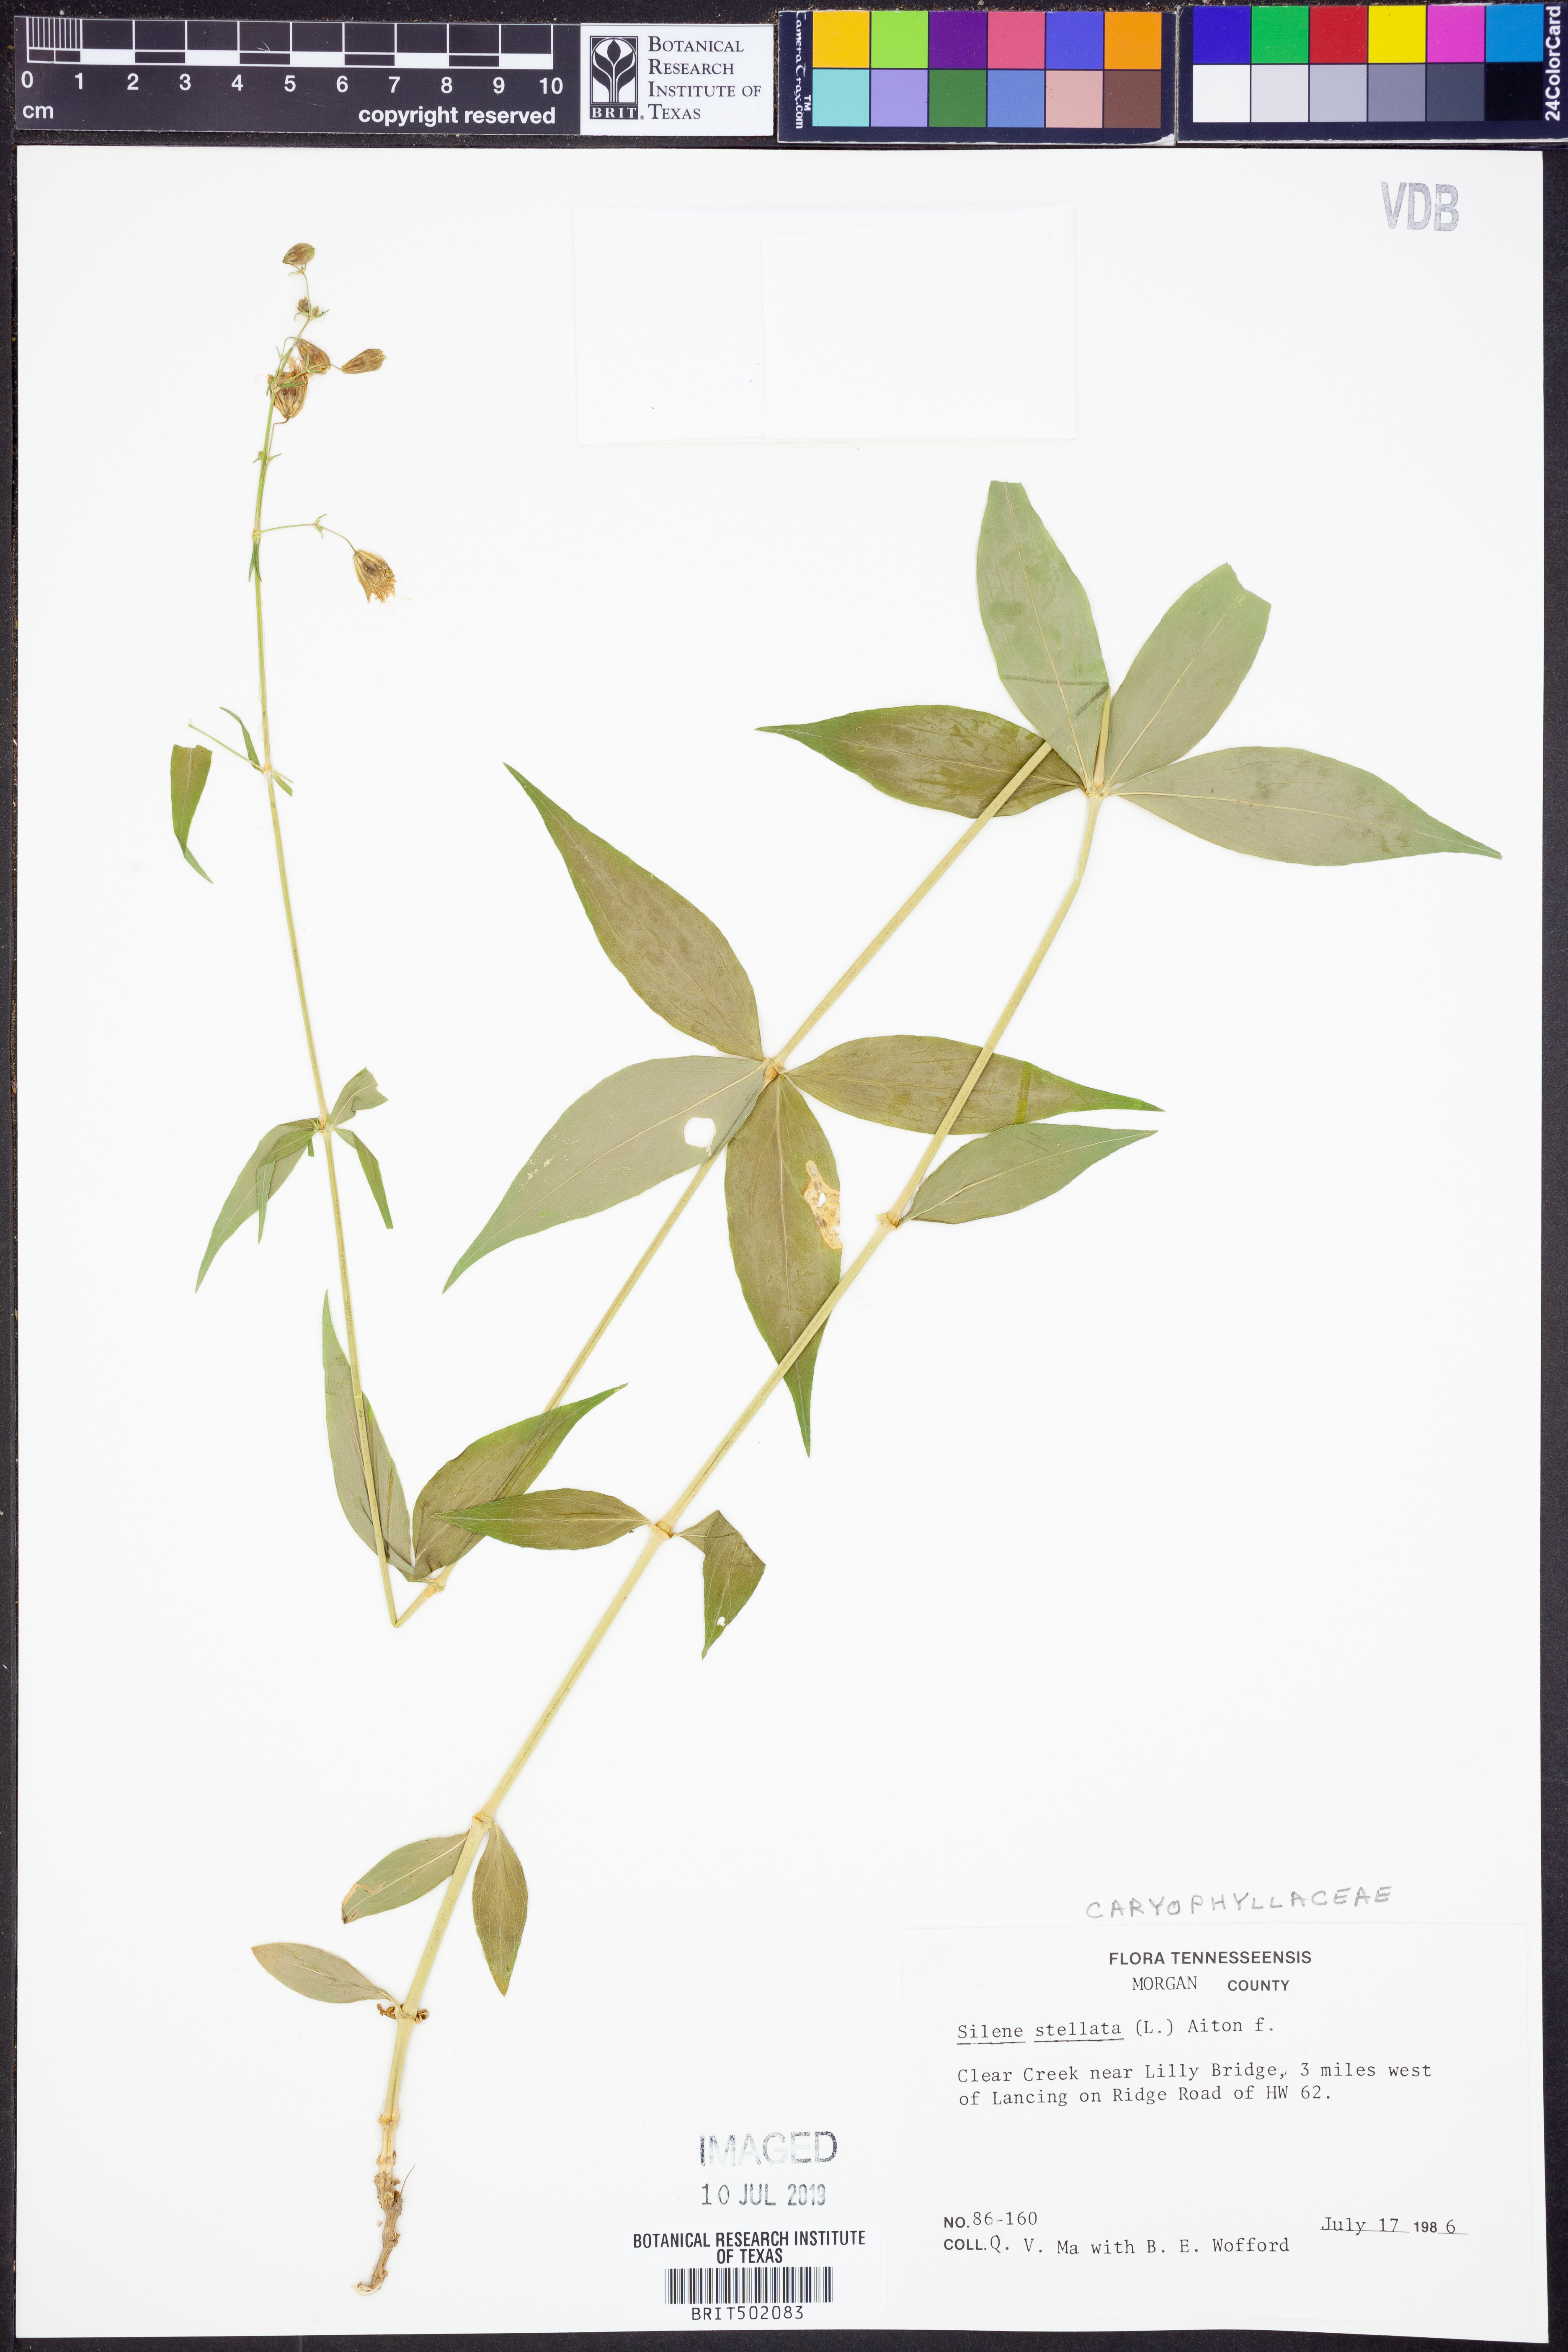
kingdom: Plantae
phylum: Tracheophyta
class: Magnoliopsida
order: Caryophyllales
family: Caryophyllaceae
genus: Silene
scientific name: Silene stellata
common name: Starry campion
